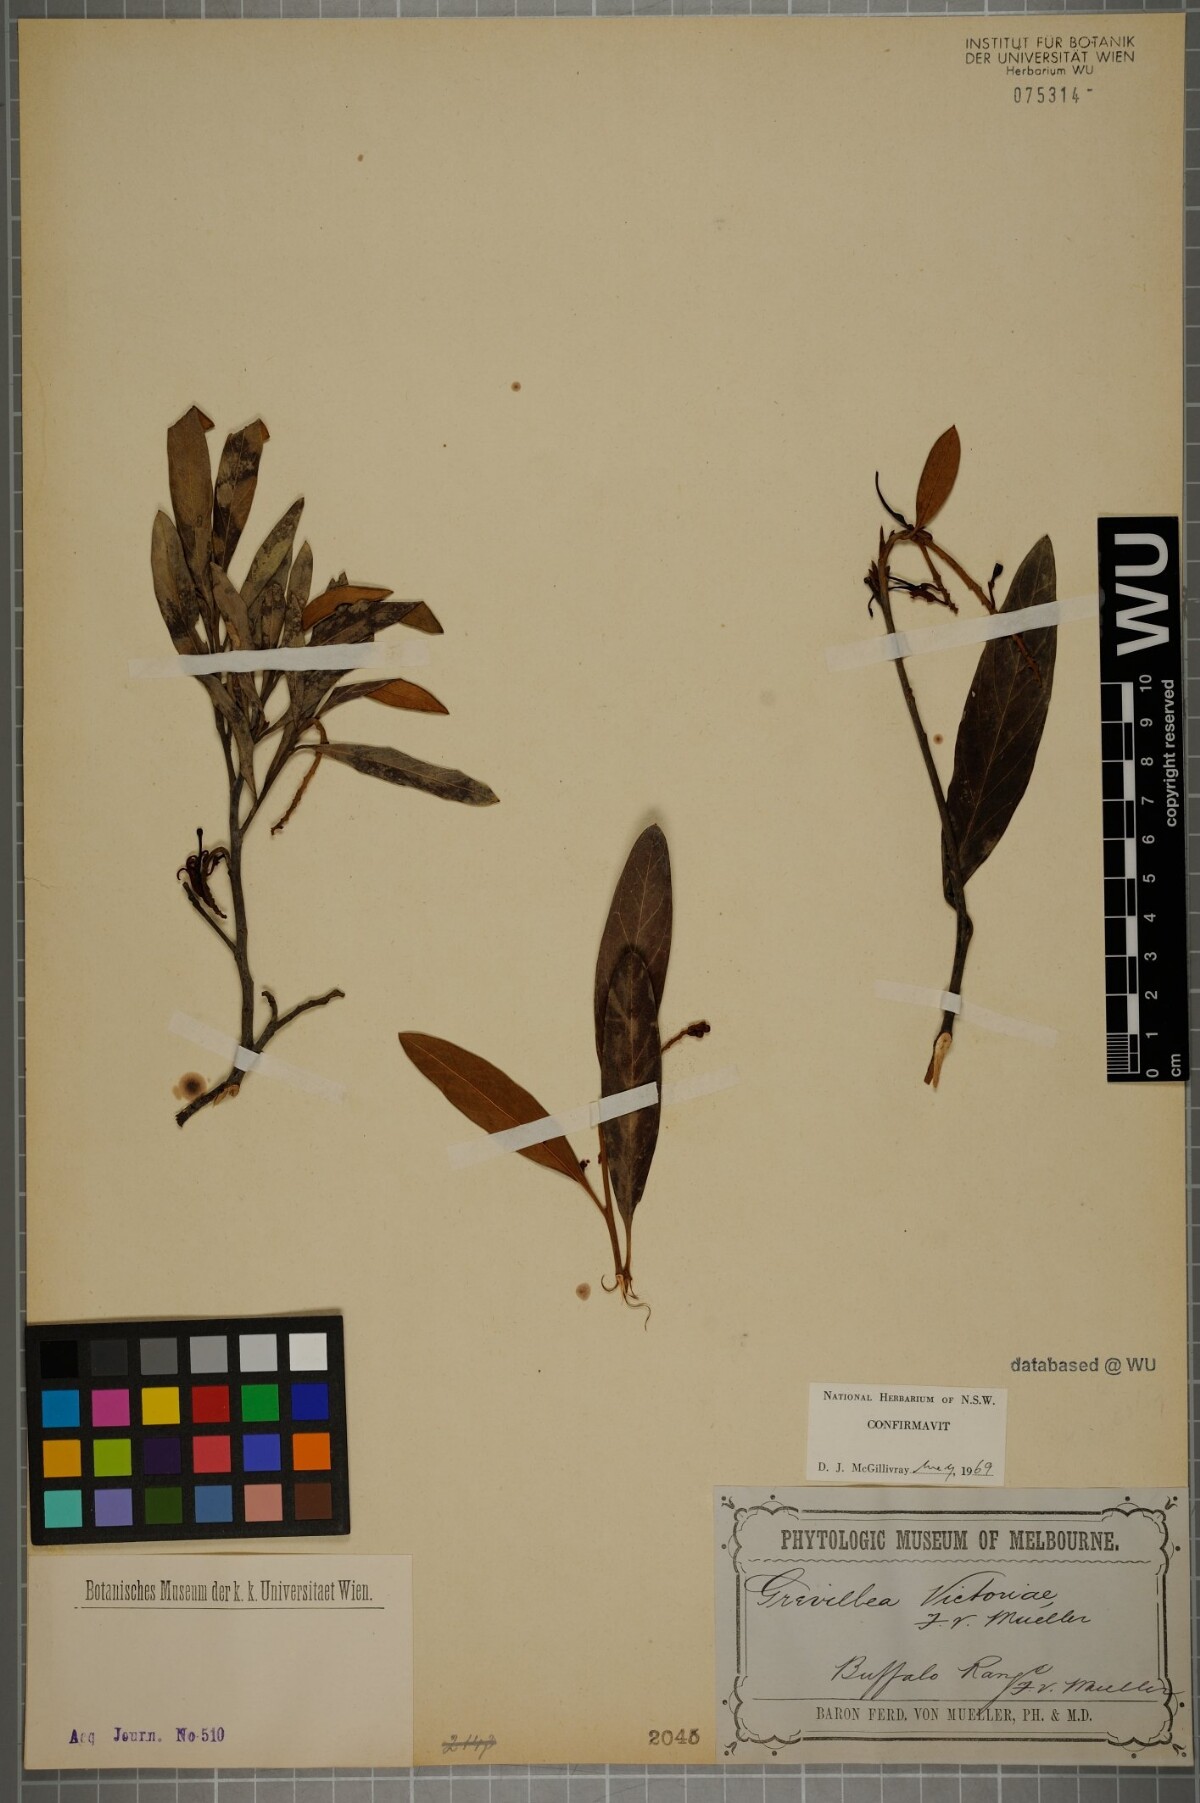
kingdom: Plantae
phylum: Tracheophyta
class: Magnoliopsida
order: Proteales
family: Proteaceae
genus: Grevillea
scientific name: Grevillea victoriae
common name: Royal grevillea
